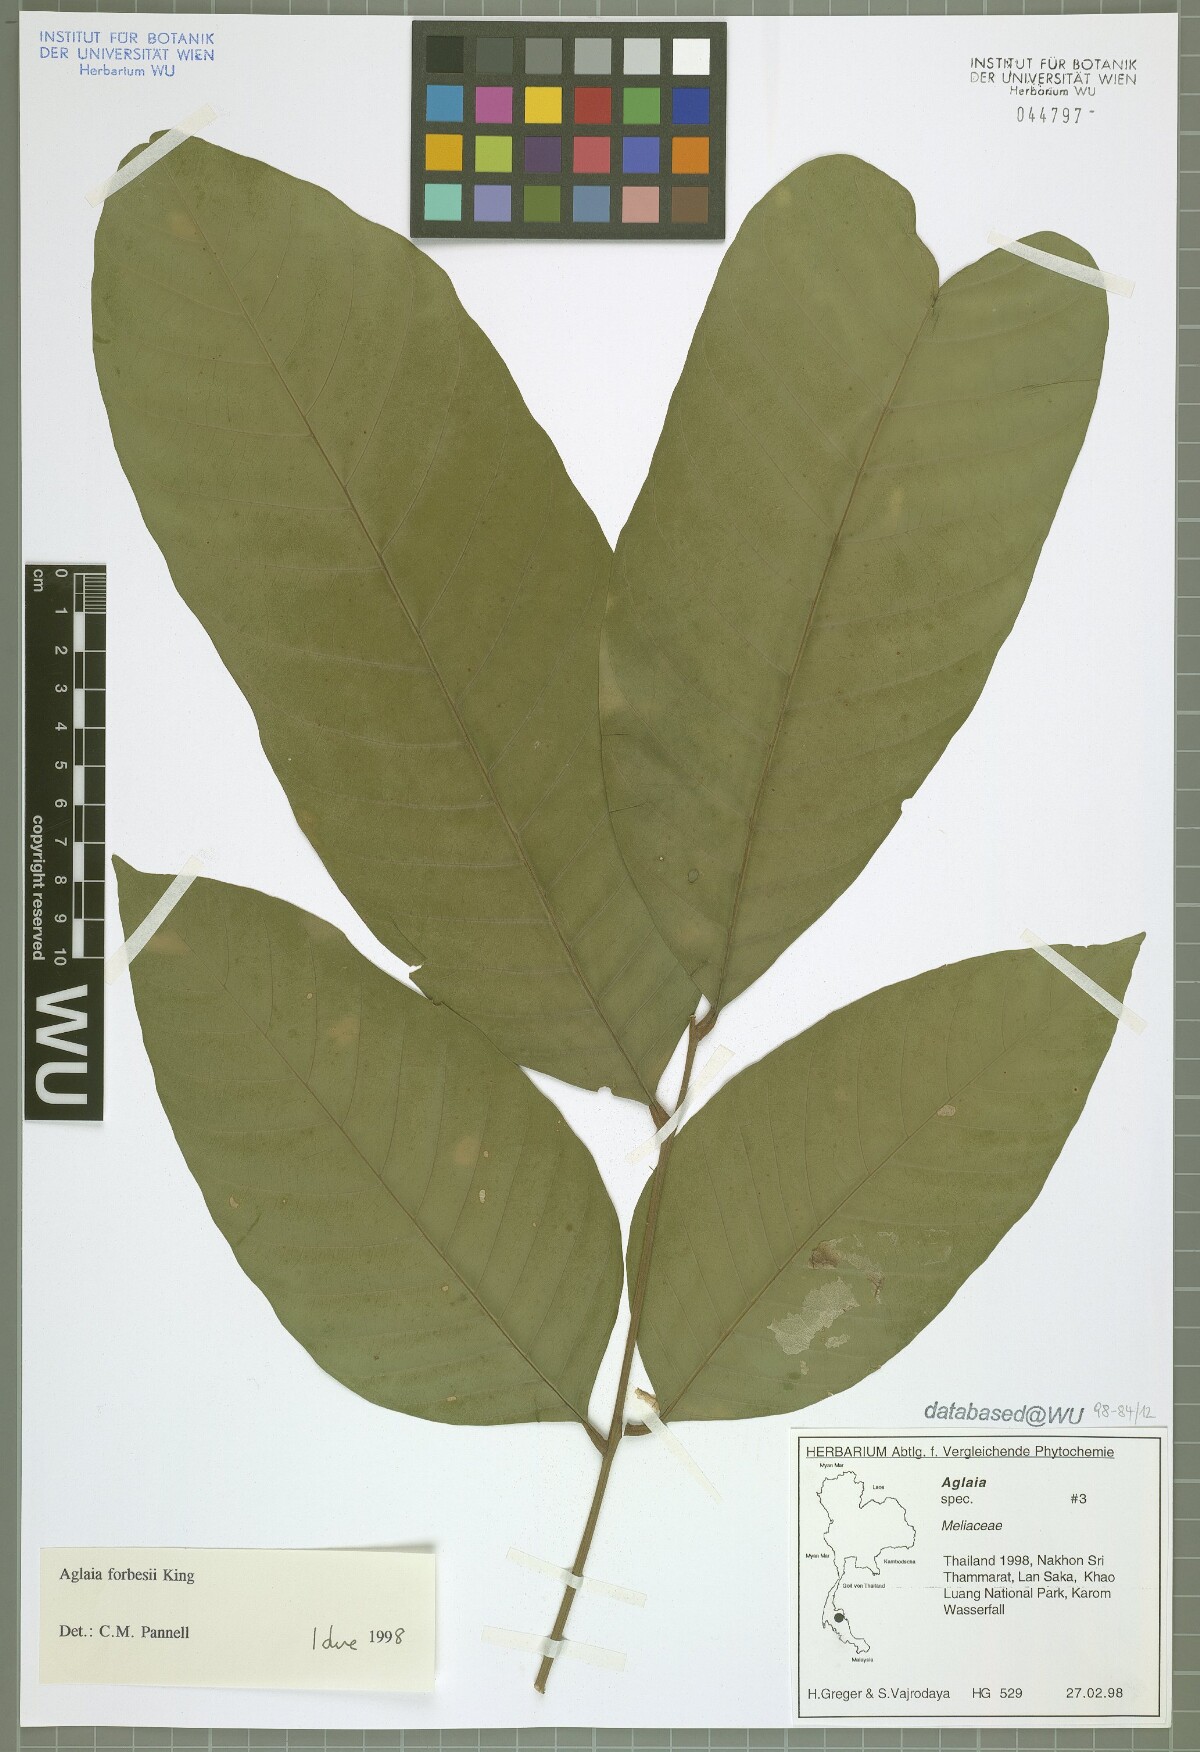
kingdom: Plantae
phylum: Tracheophyta
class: Magnoliopsida
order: Sapindales
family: Meliaceae
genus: Aglaia
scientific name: Aglaia forbesii
